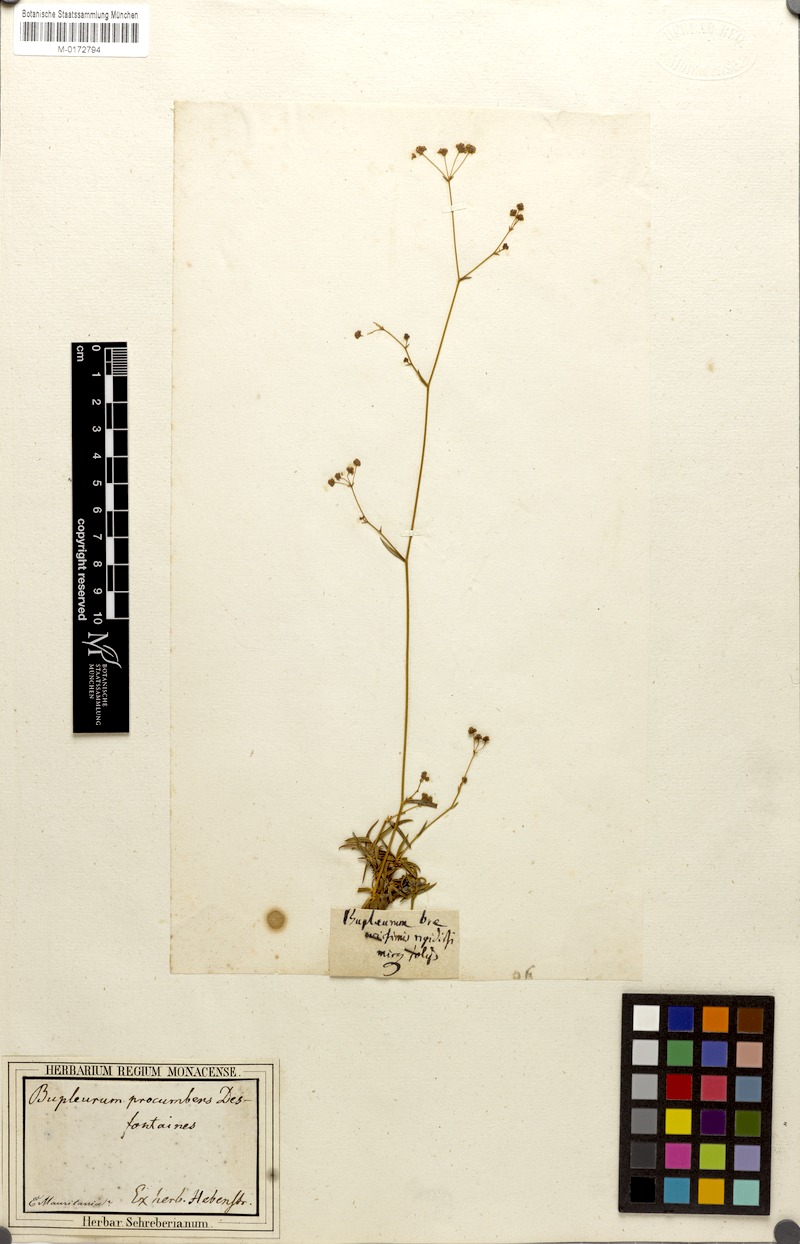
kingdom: Plantae
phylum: Tracheophyta
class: Magnoliopsida
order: Apiales
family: Apiaceae
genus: Bupleurum
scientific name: Bupleurum tenuissimum
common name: Slender hare's-ear
